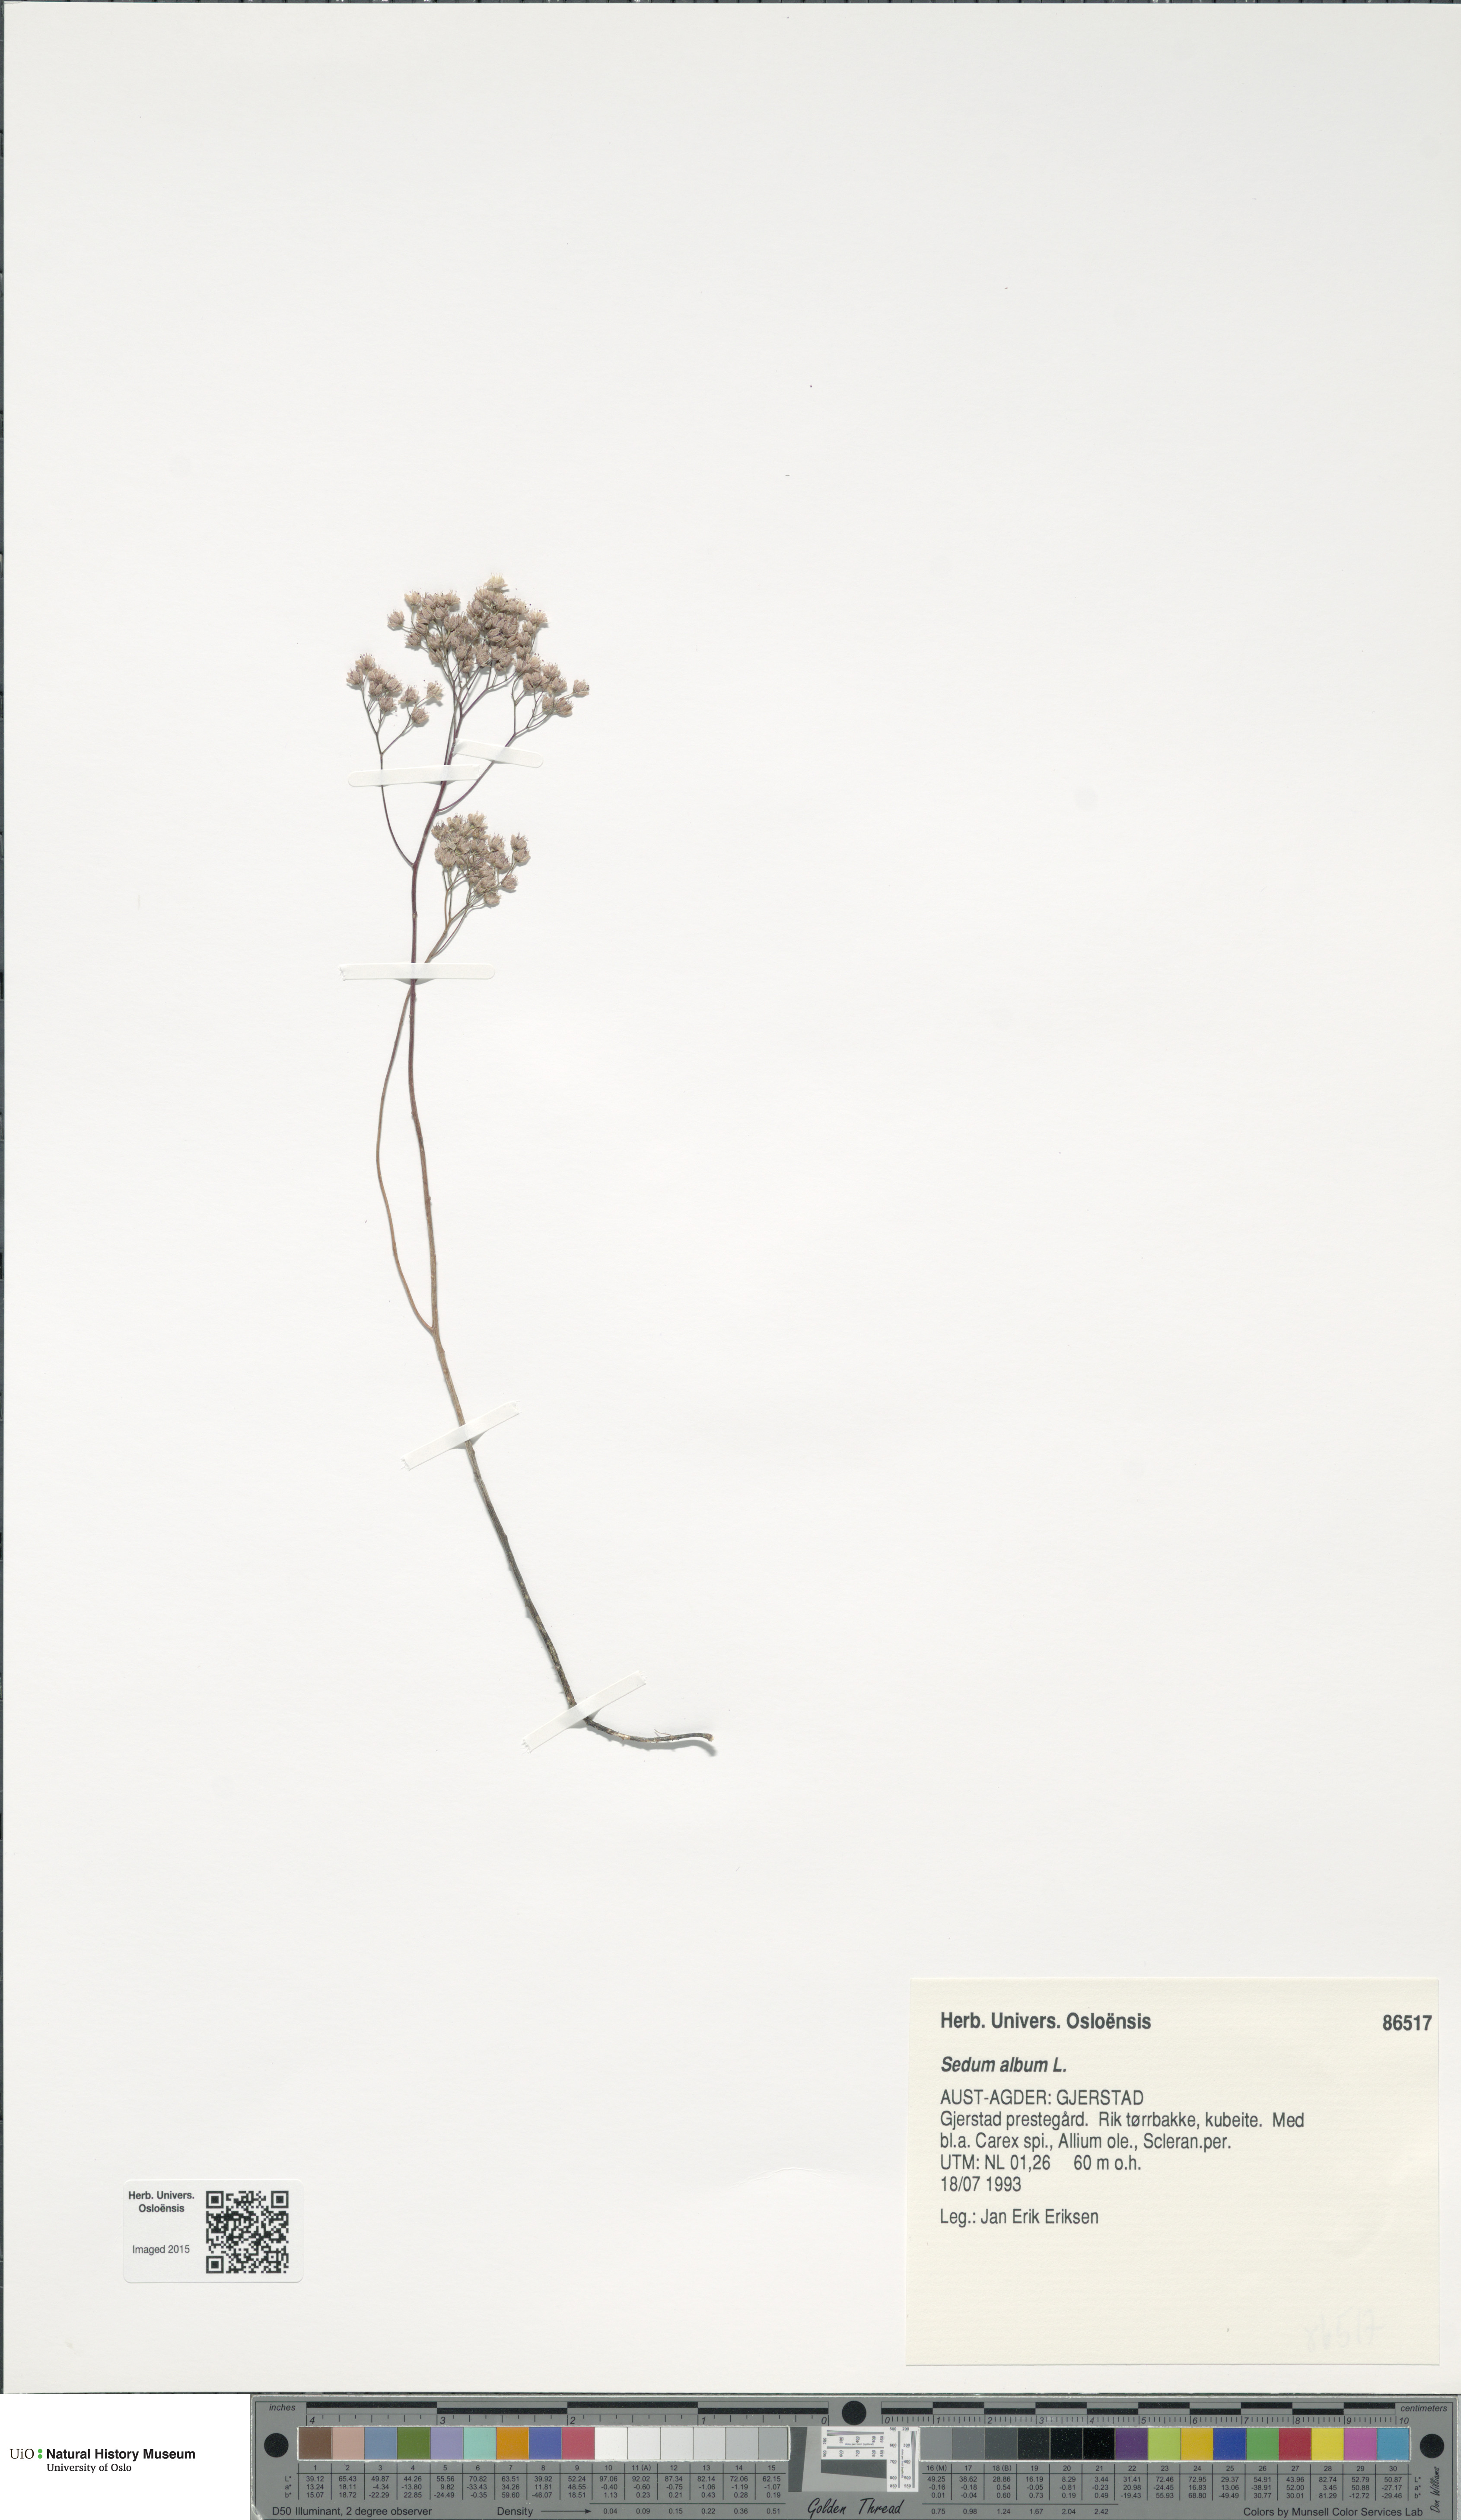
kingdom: Plantae
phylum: Tracheophyta
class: Magnoliopsida
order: Saxifragales
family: Crassulaceae
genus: Sedum
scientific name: Sedum album
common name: White stonecrop
